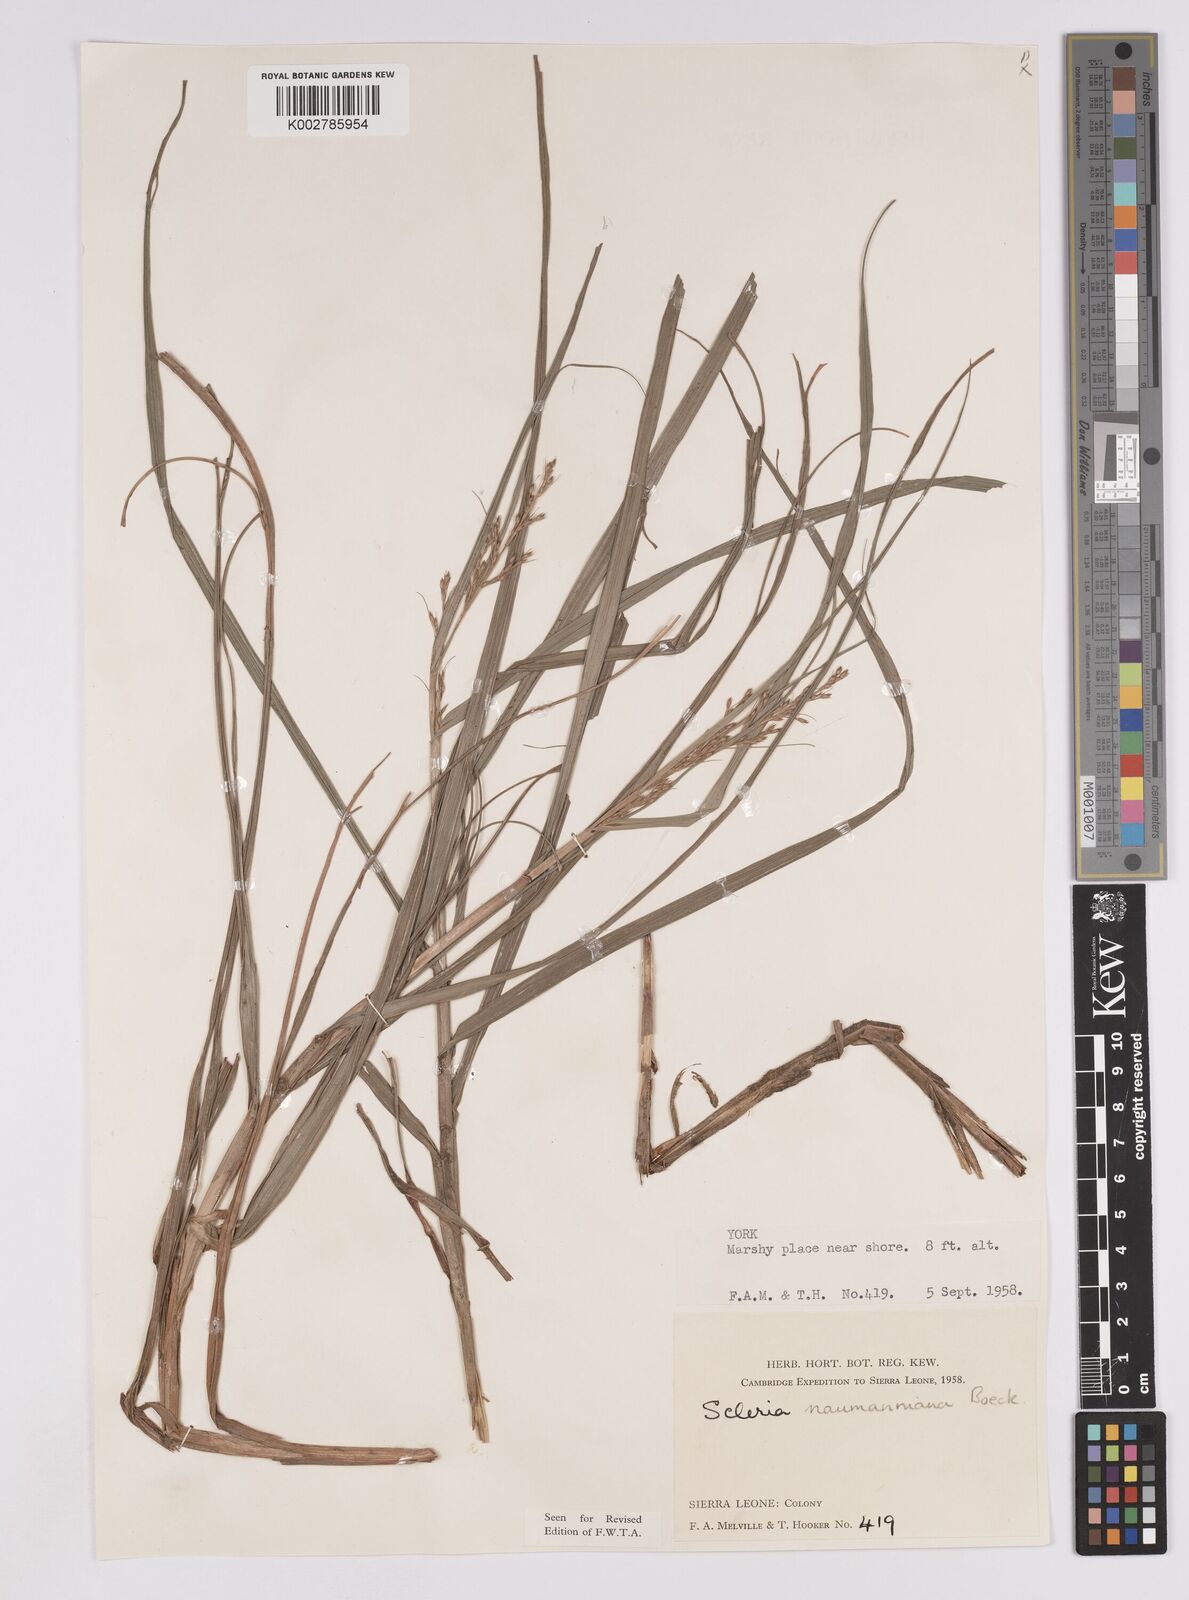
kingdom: Plantae
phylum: Tracheophyta
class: Liliopsida
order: Poales
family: Cyperaceae
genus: Scleria
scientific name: Scleria naumanniana
